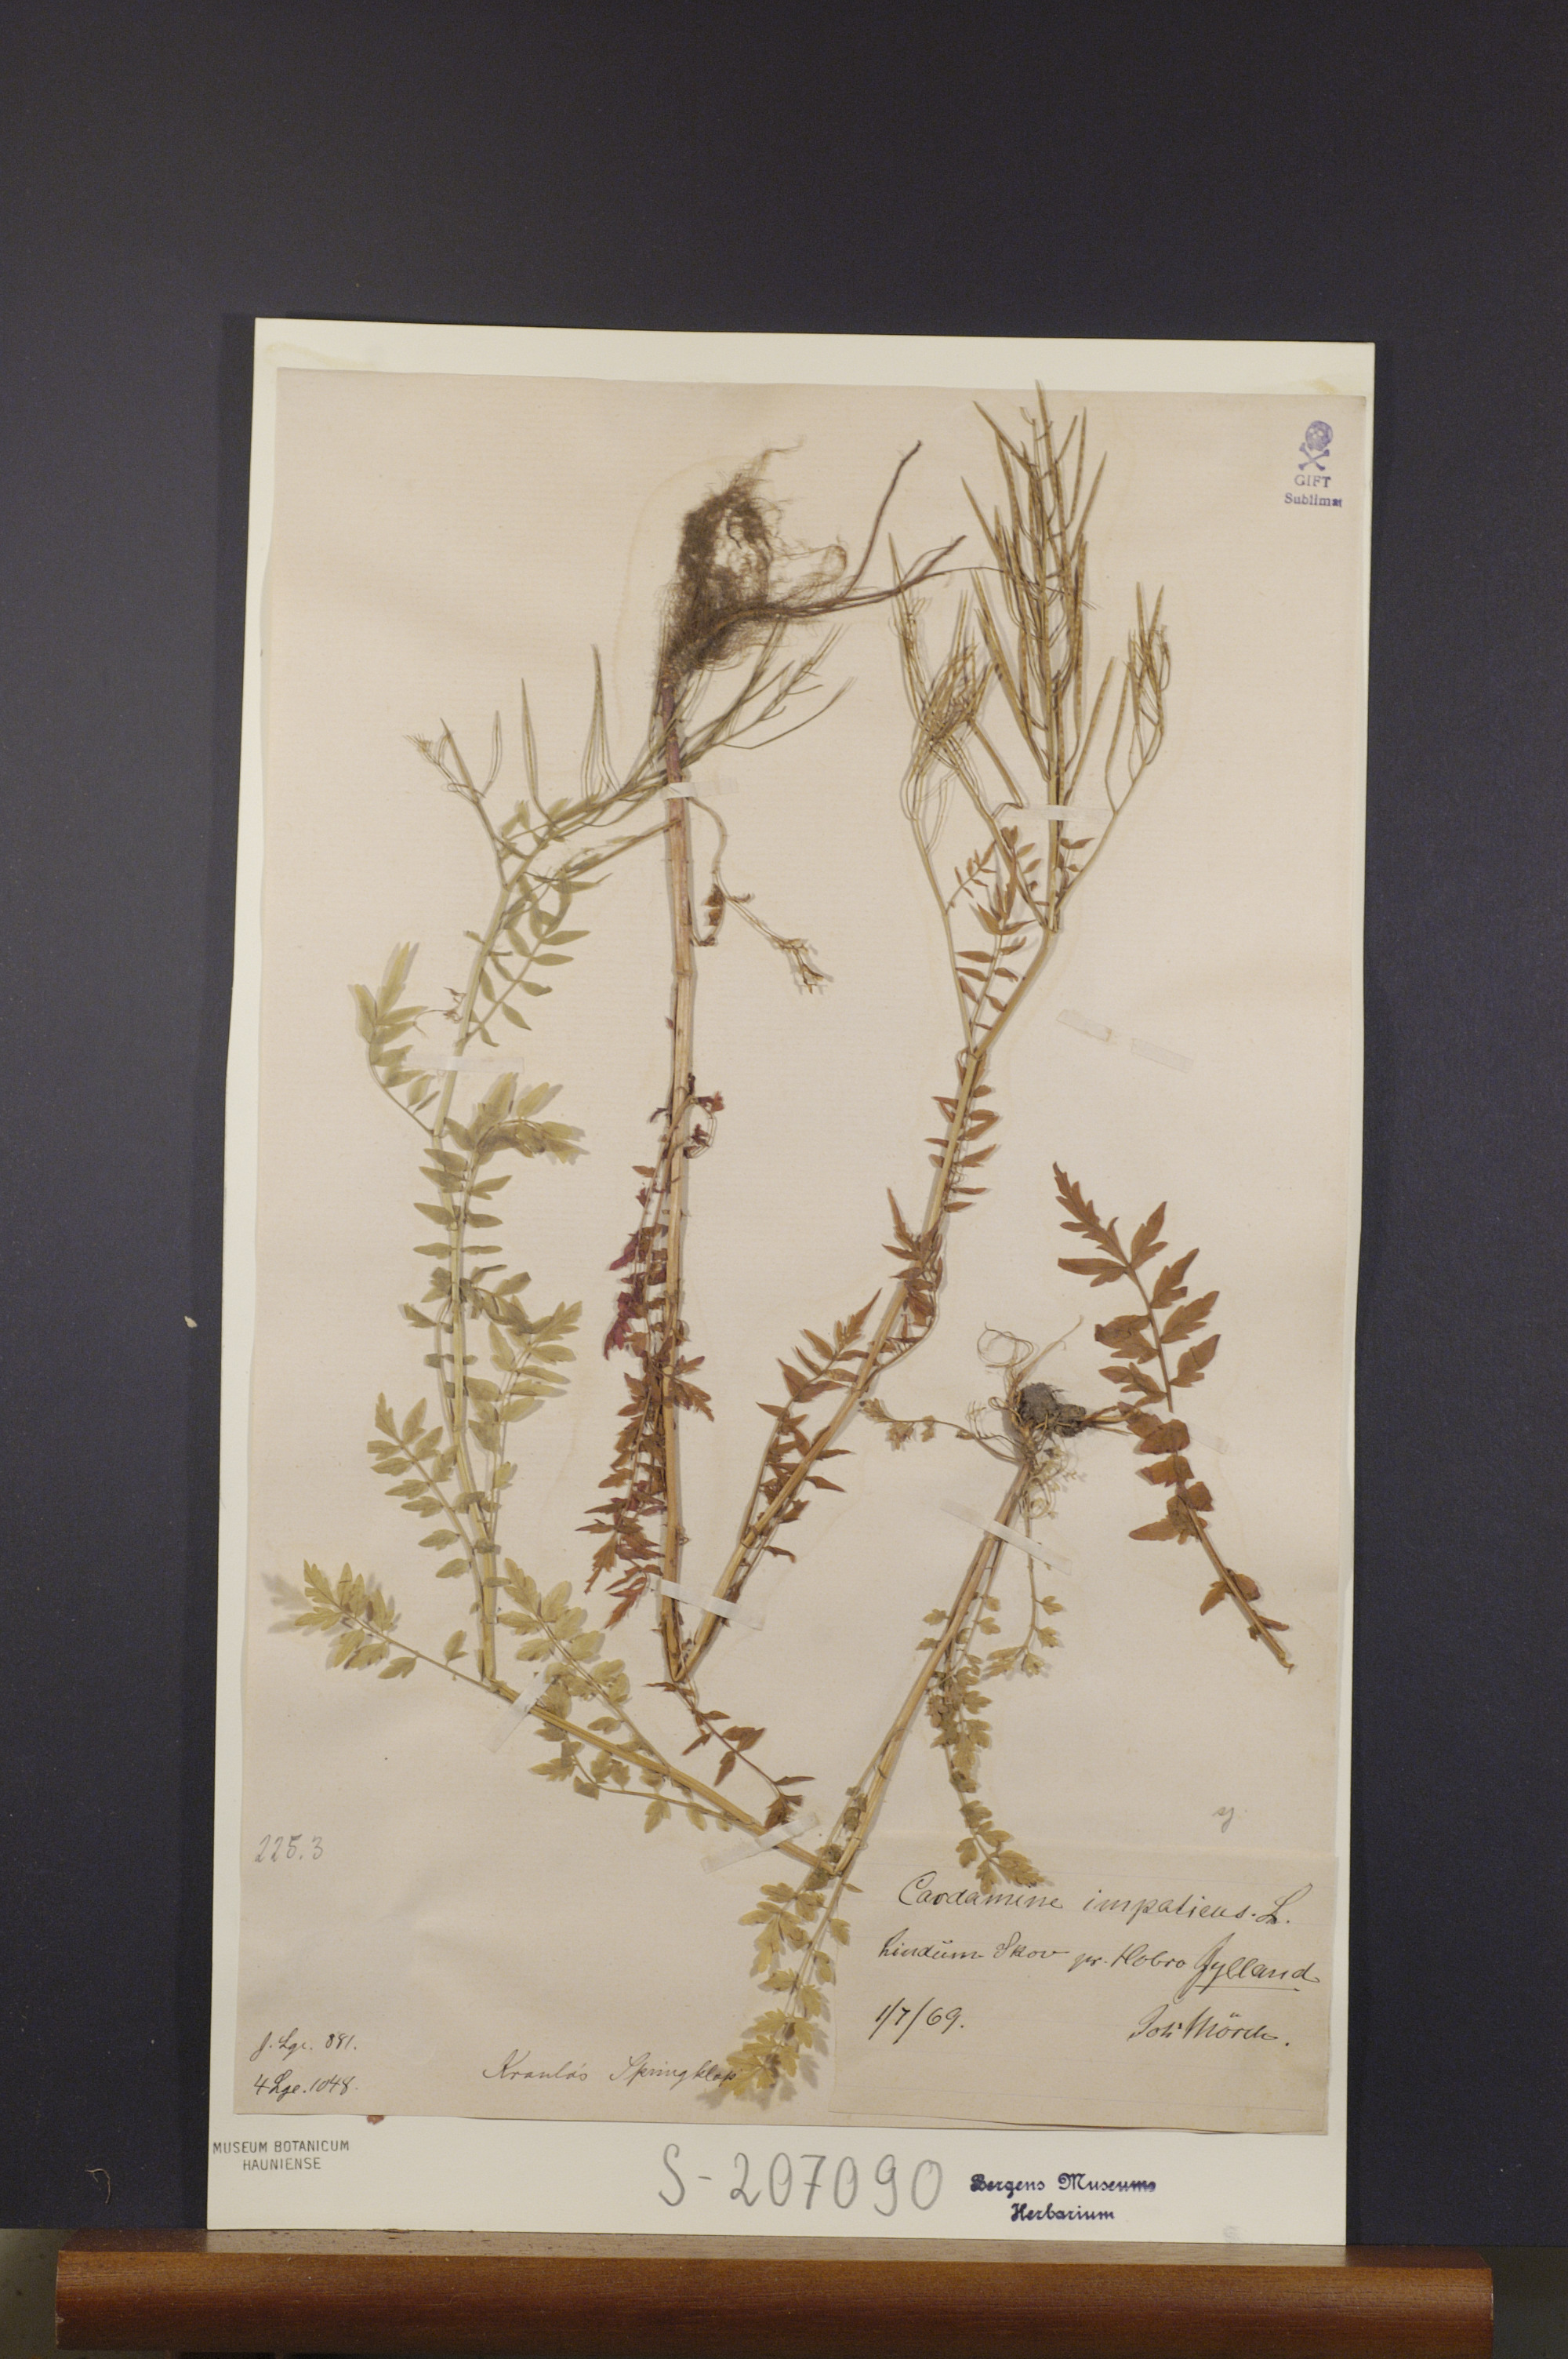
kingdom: Plantae
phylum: Tracheophyta
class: Magnoliopsida
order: Brassicales
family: Brassicaceae
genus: Cardamine
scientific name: Cardamine impatiens
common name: Narrow-leaved bitter-cress
